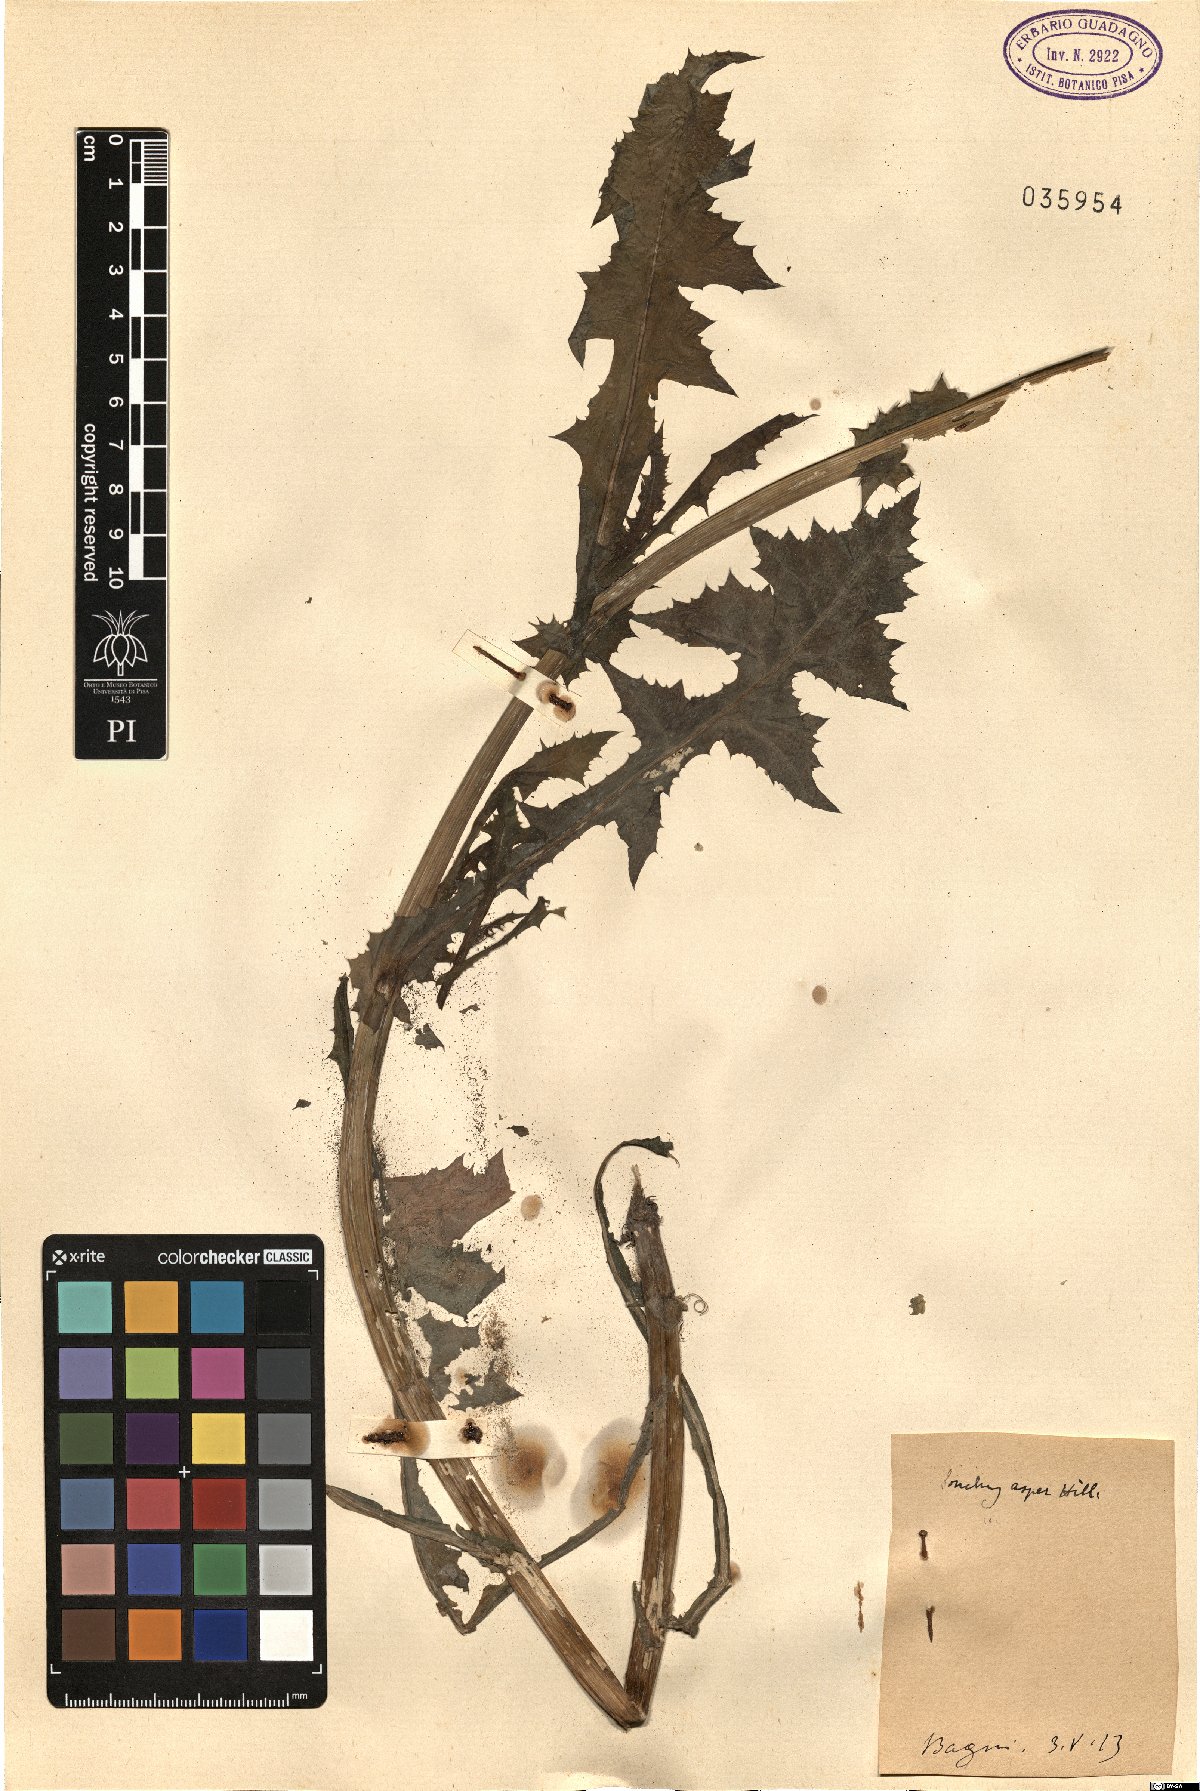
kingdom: Plantae
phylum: Tracheophyta
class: Liliopsida
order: Poales
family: Cyperaceae
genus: Carex
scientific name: Carex riparia
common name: Greater pond-sedge
